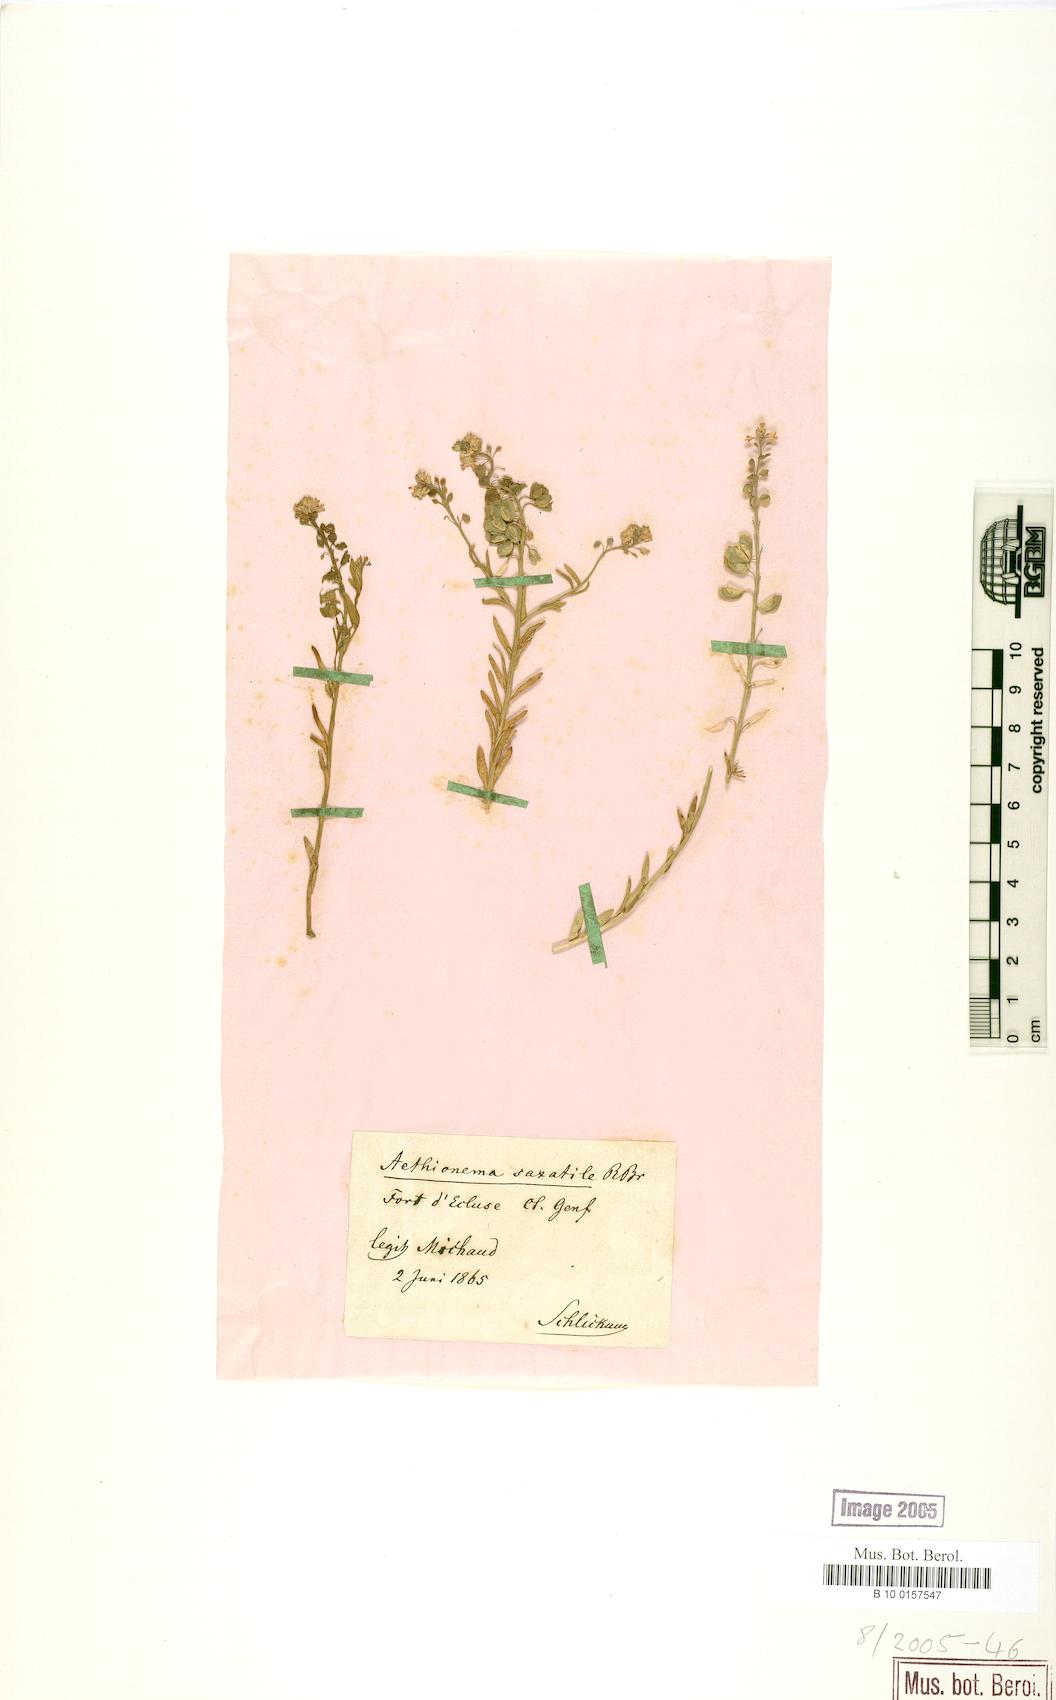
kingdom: Plantae
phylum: Tracheophyta
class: Magnoliopsida
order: Brassicales
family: Brassicaceae
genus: Aethionema
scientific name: Aethionema saxatile
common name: Burnt candytuft
